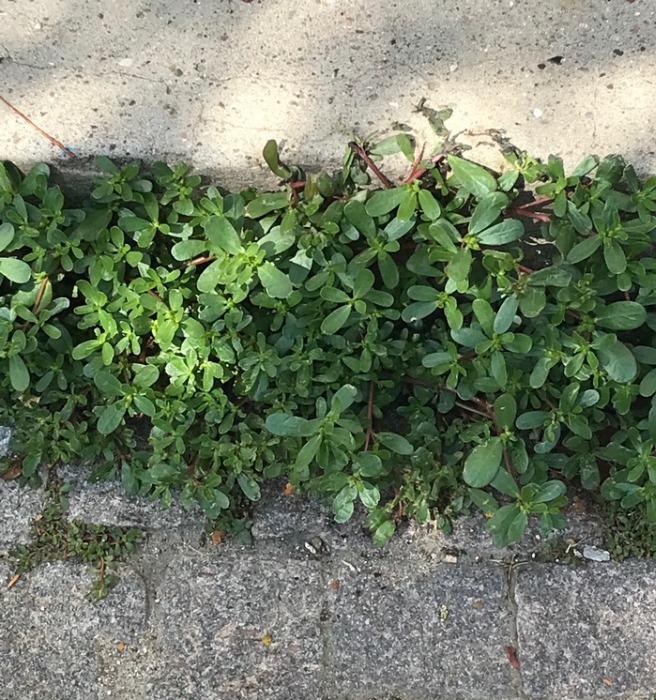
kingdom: Plantae
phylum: Tracheophyta
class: Magnoliopsida
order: Caryophyllales
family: Portulacaceae
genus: Portulaca
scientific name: Portulaca oleracea
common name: Vild portulak
